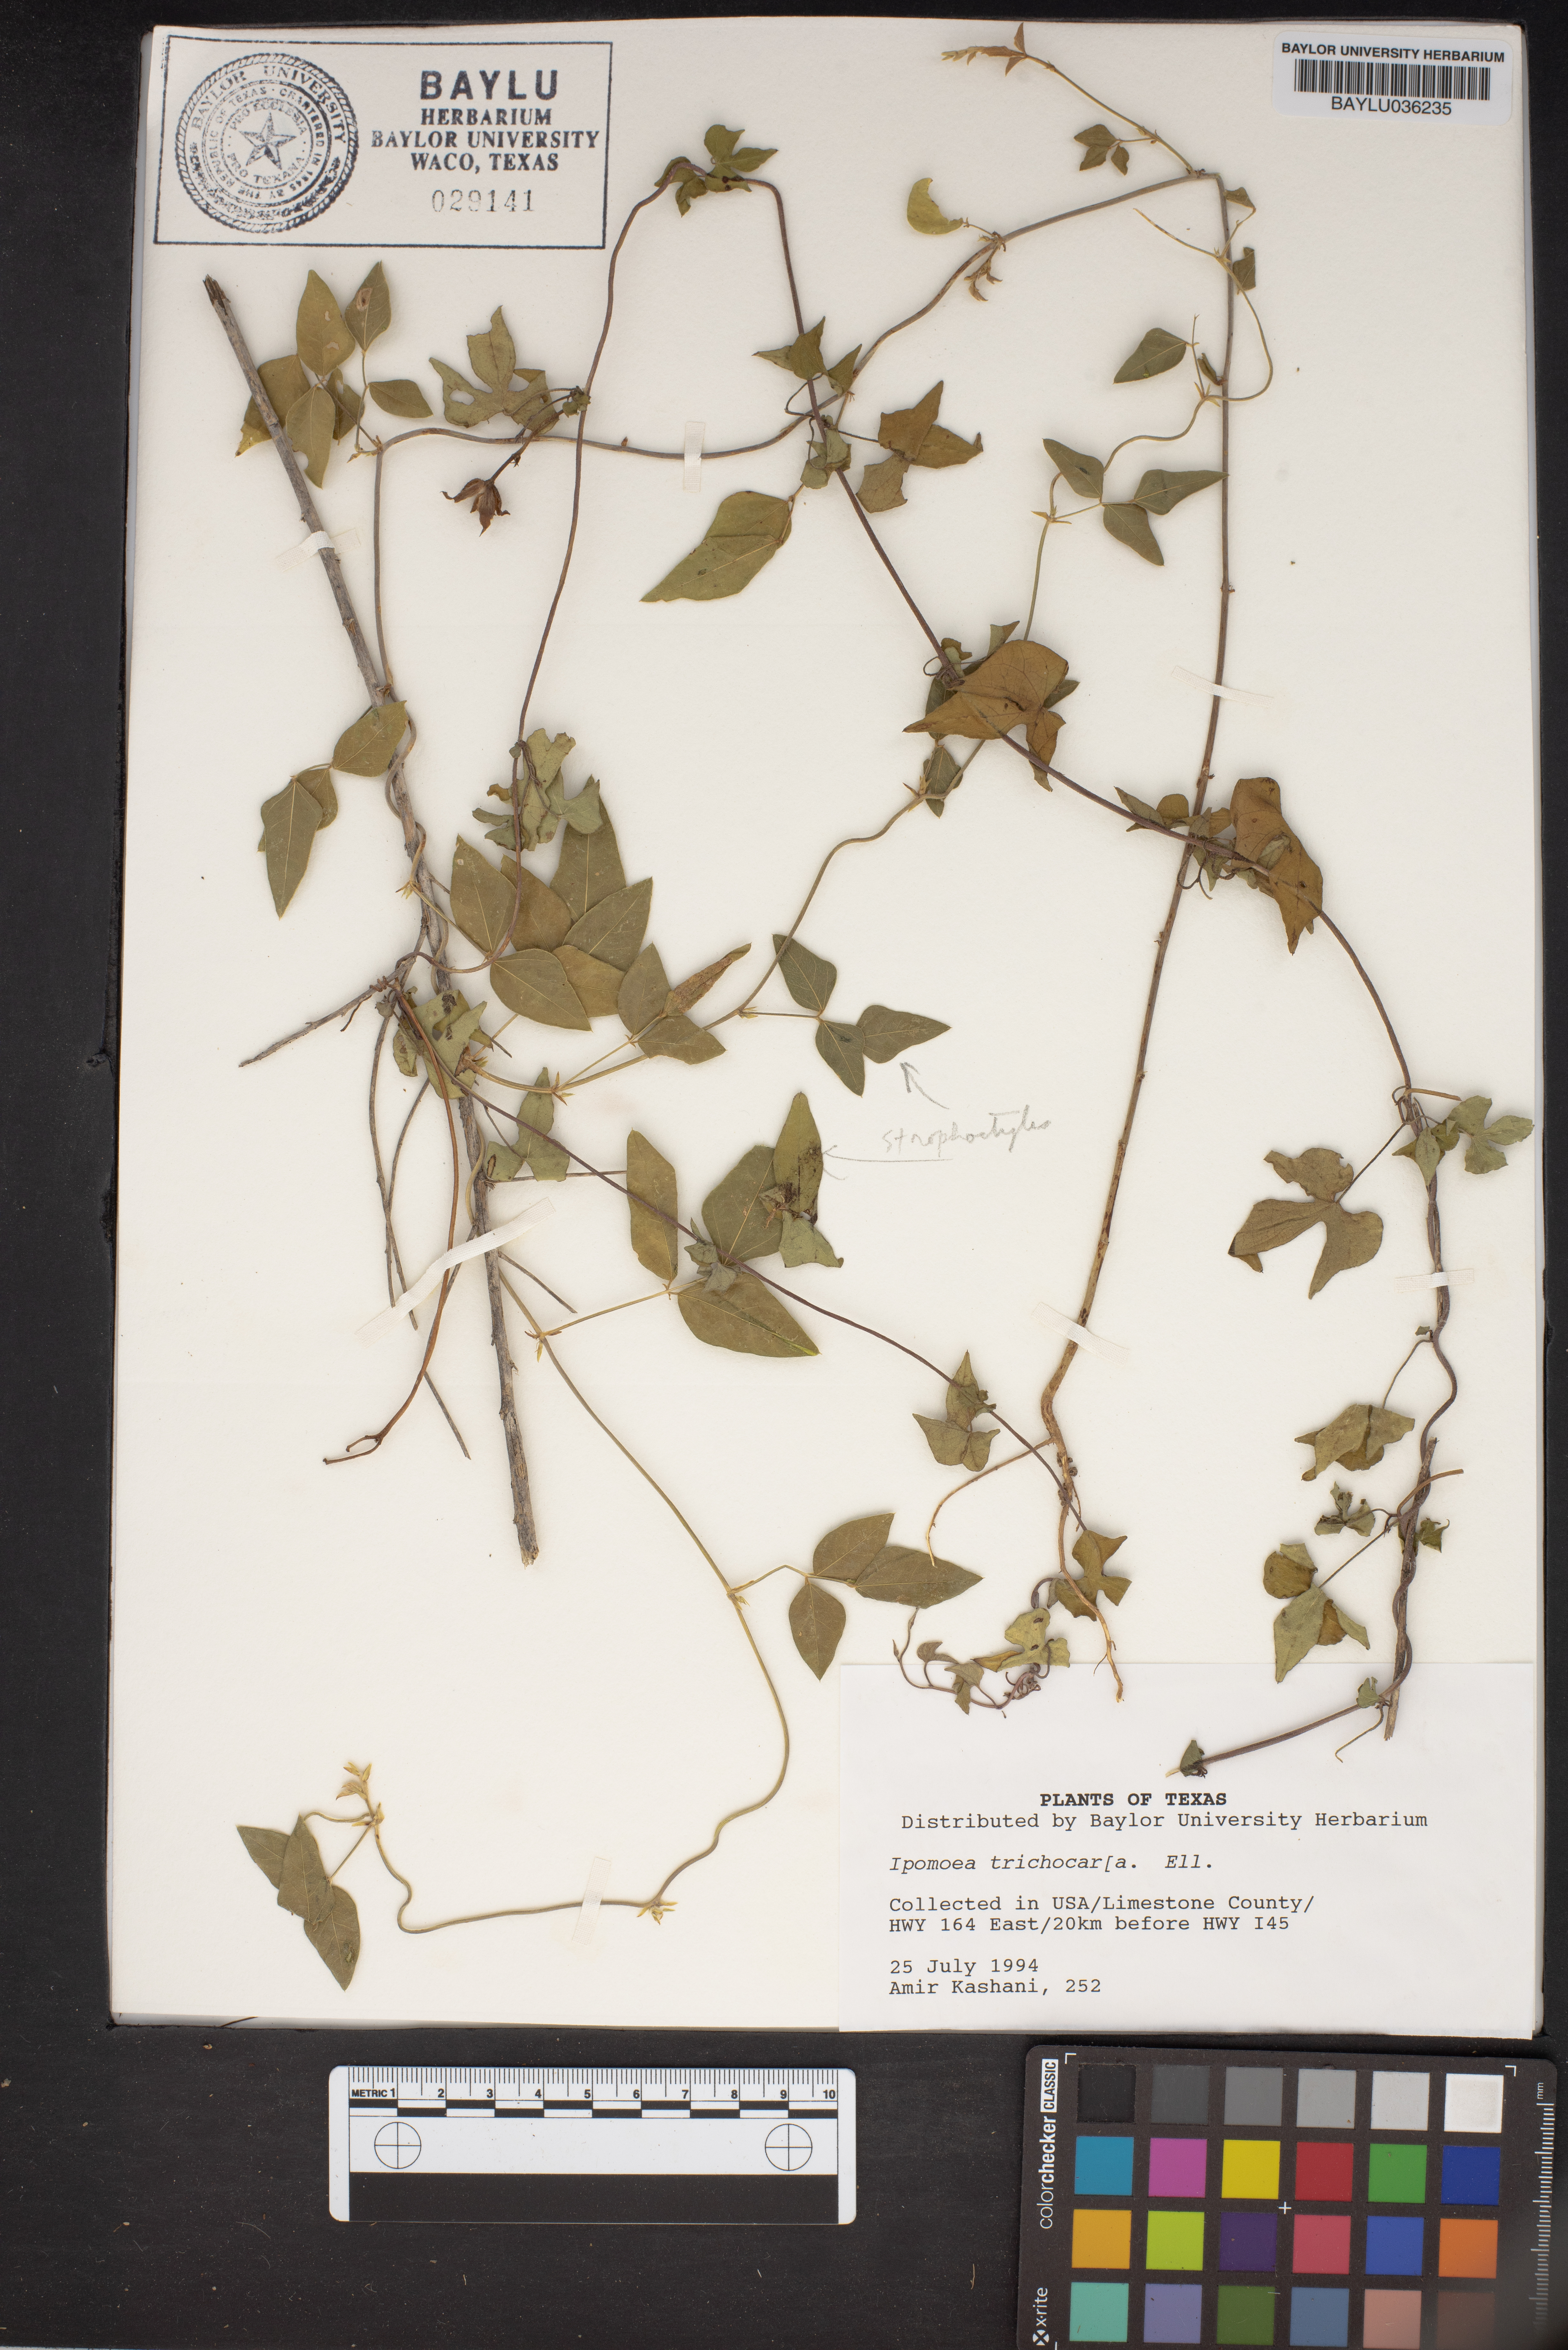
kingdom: Plantae
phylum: Tracheophyta
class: Magnoliopsida
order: Solanales
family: Convolvulaceae
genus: Ipomoea
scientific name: Ipomoea cordatotriloba
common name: Cotton morning glory
